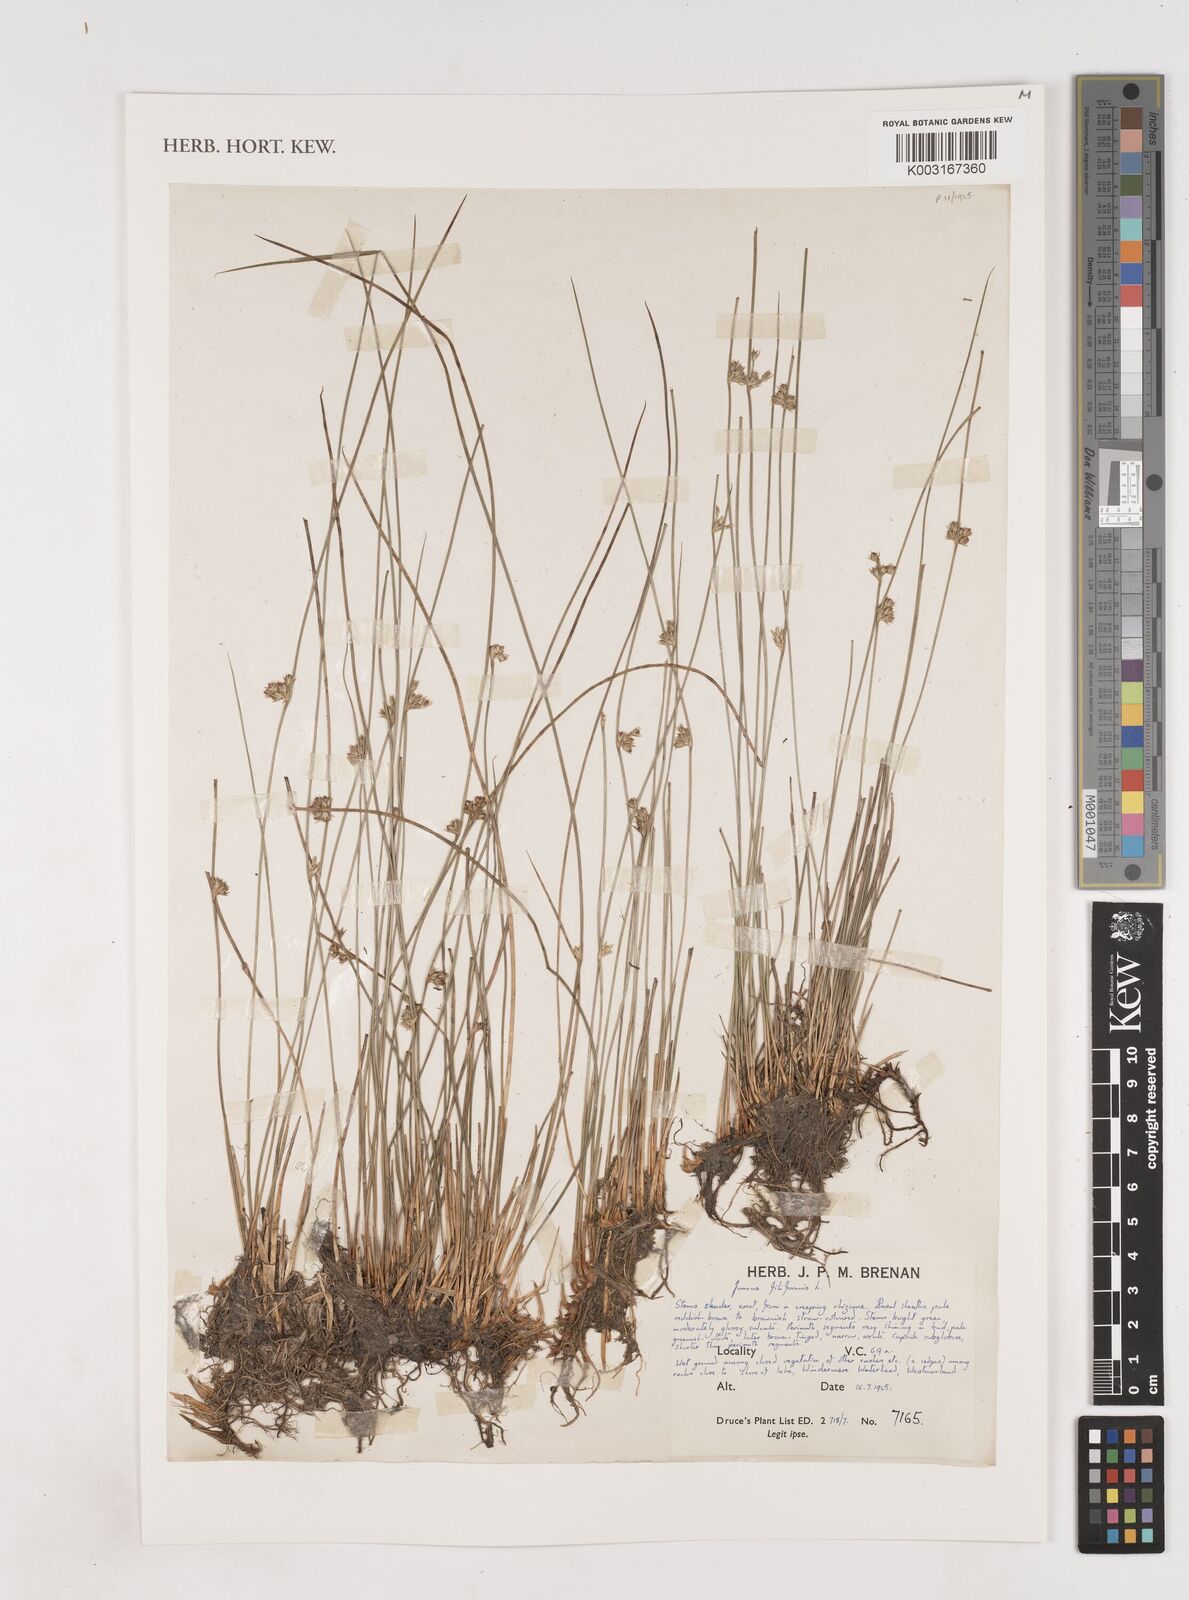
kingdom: Plantae
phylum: Tracheophyta
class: Liliopsida
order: Poales
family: Juncaceae
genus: Juncus
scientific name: Juncus filiformis
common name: Thread rush
